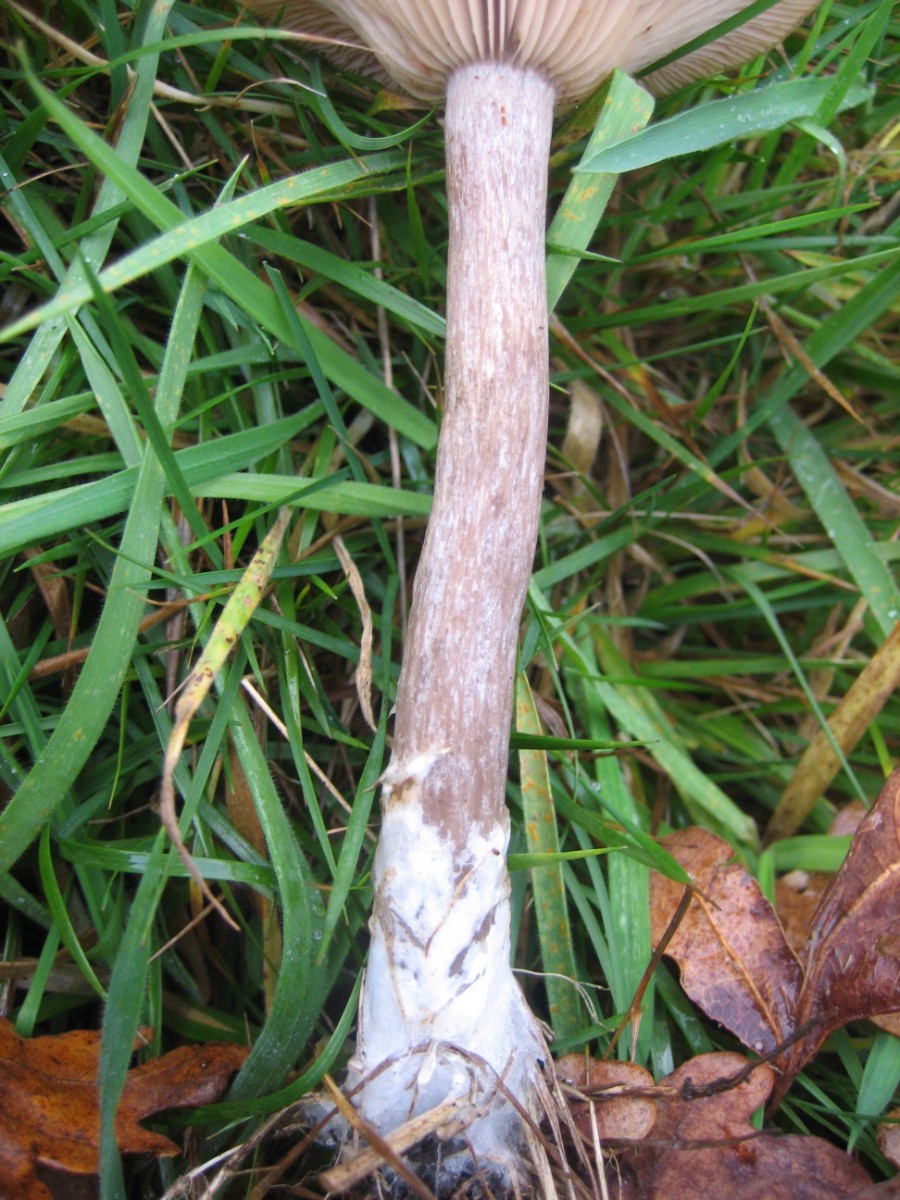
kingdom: Fungi
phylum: Basidiomycota
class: Agaricomycetes
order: Agaricales
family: Pseudoclitocybaceae
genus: Pseudoclitocybe
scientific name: Pseudoclitocybe cyathiformis
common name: almindelig bægertragthat
